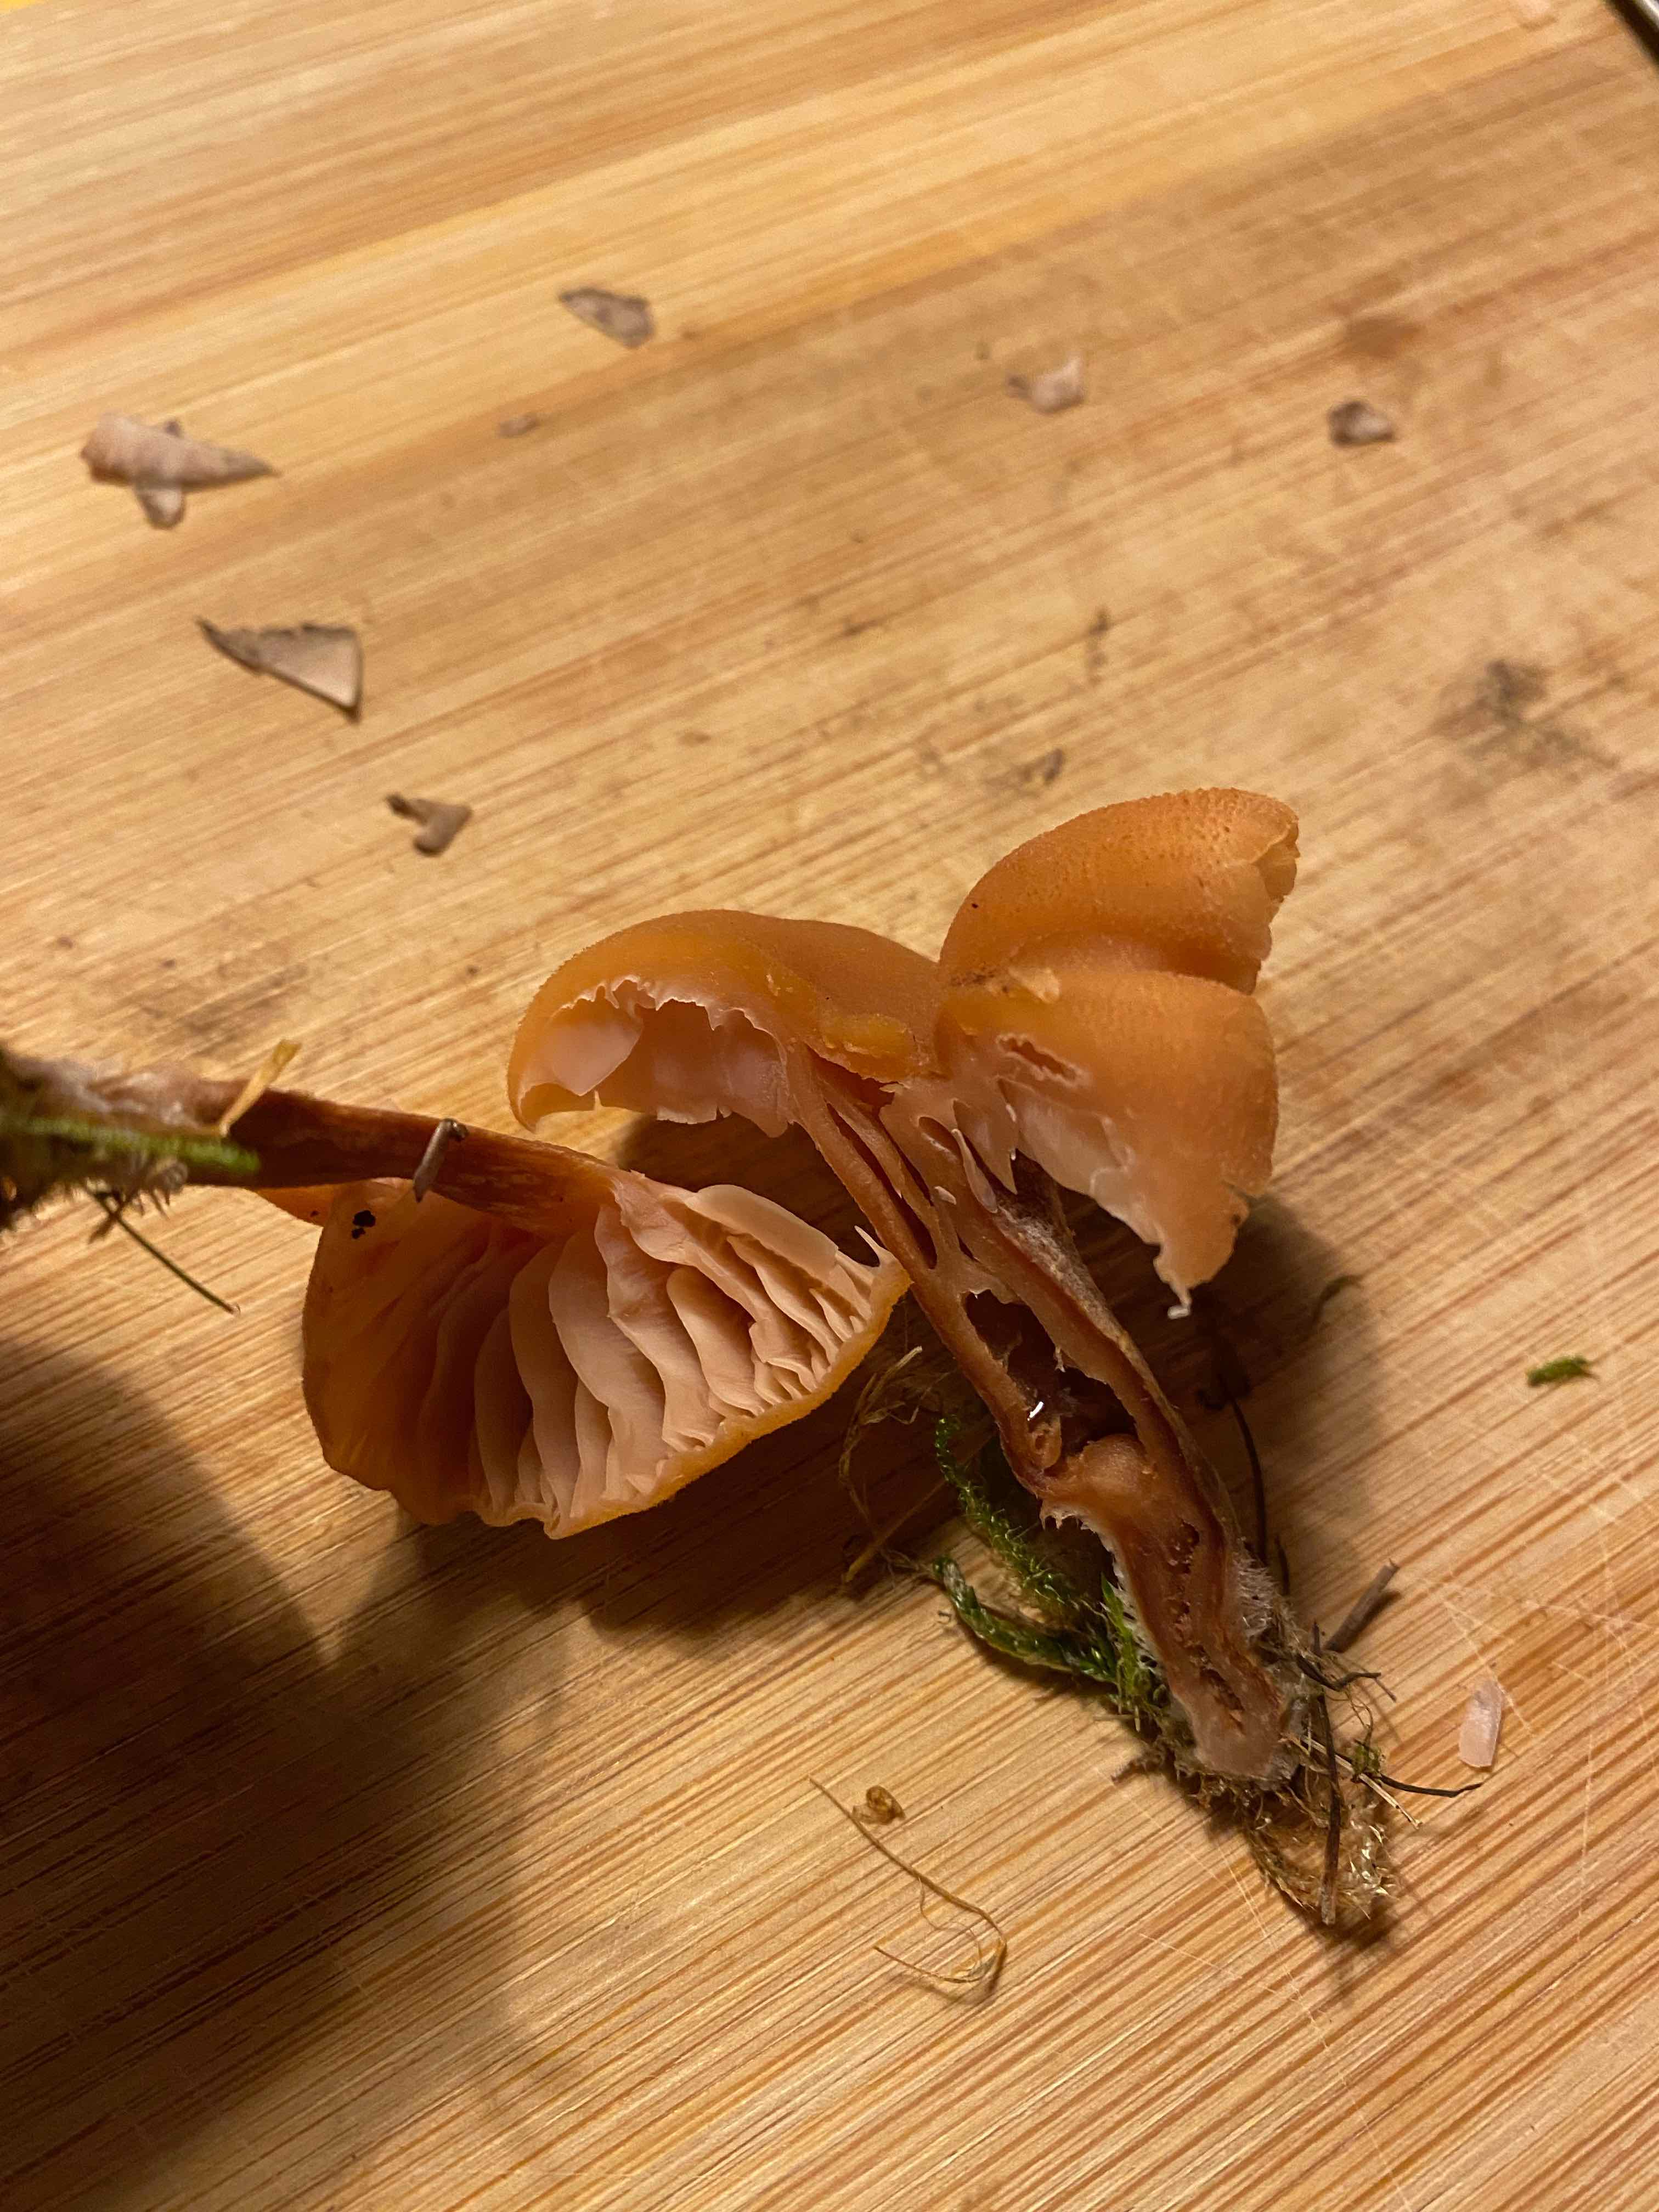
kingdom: Fungi
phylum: Basidiomycota
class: Agaricomycetes
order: Agaricales
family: Hydnangiaceae
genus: Laccaria
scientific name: Laccaria laccata
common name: rød ametysthat
